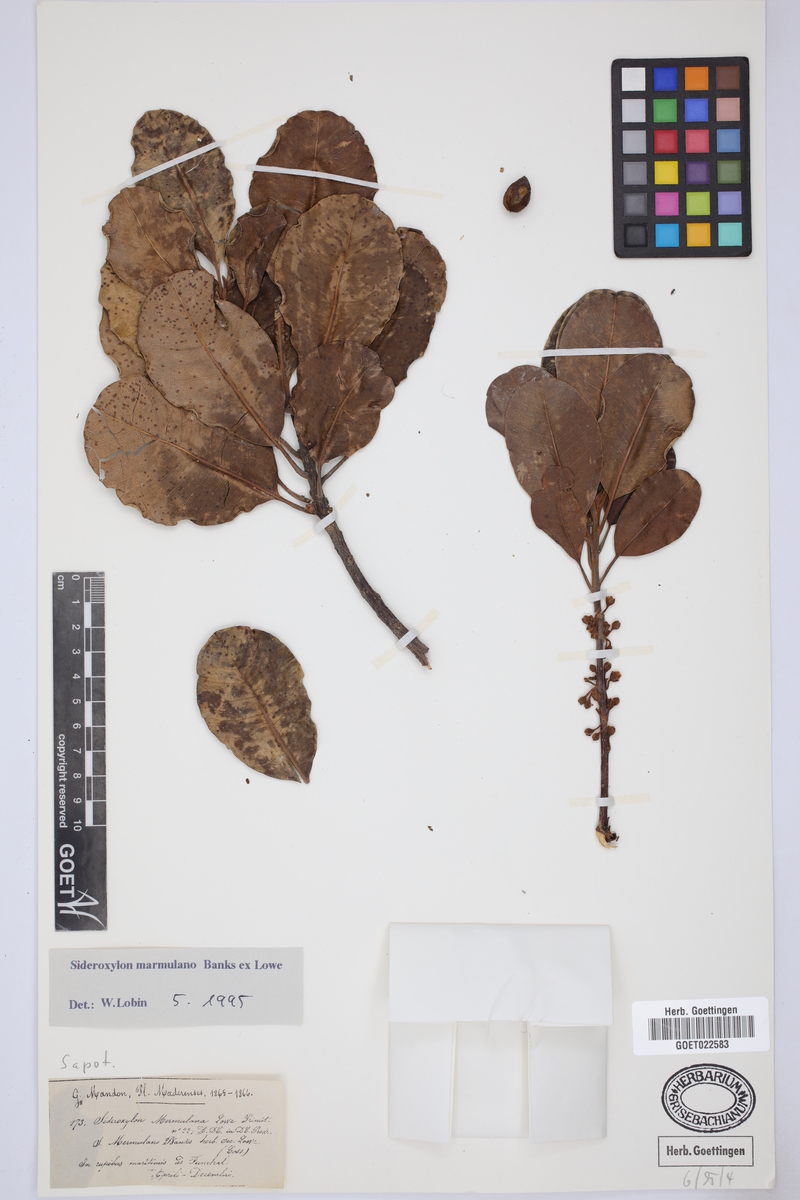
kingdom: Plantae
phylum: Tracheophyta
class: Magnoliopsida
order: Ericales
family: Sapotaceae
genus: Sideroxylon
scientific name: Sideroxylon mirmulano
